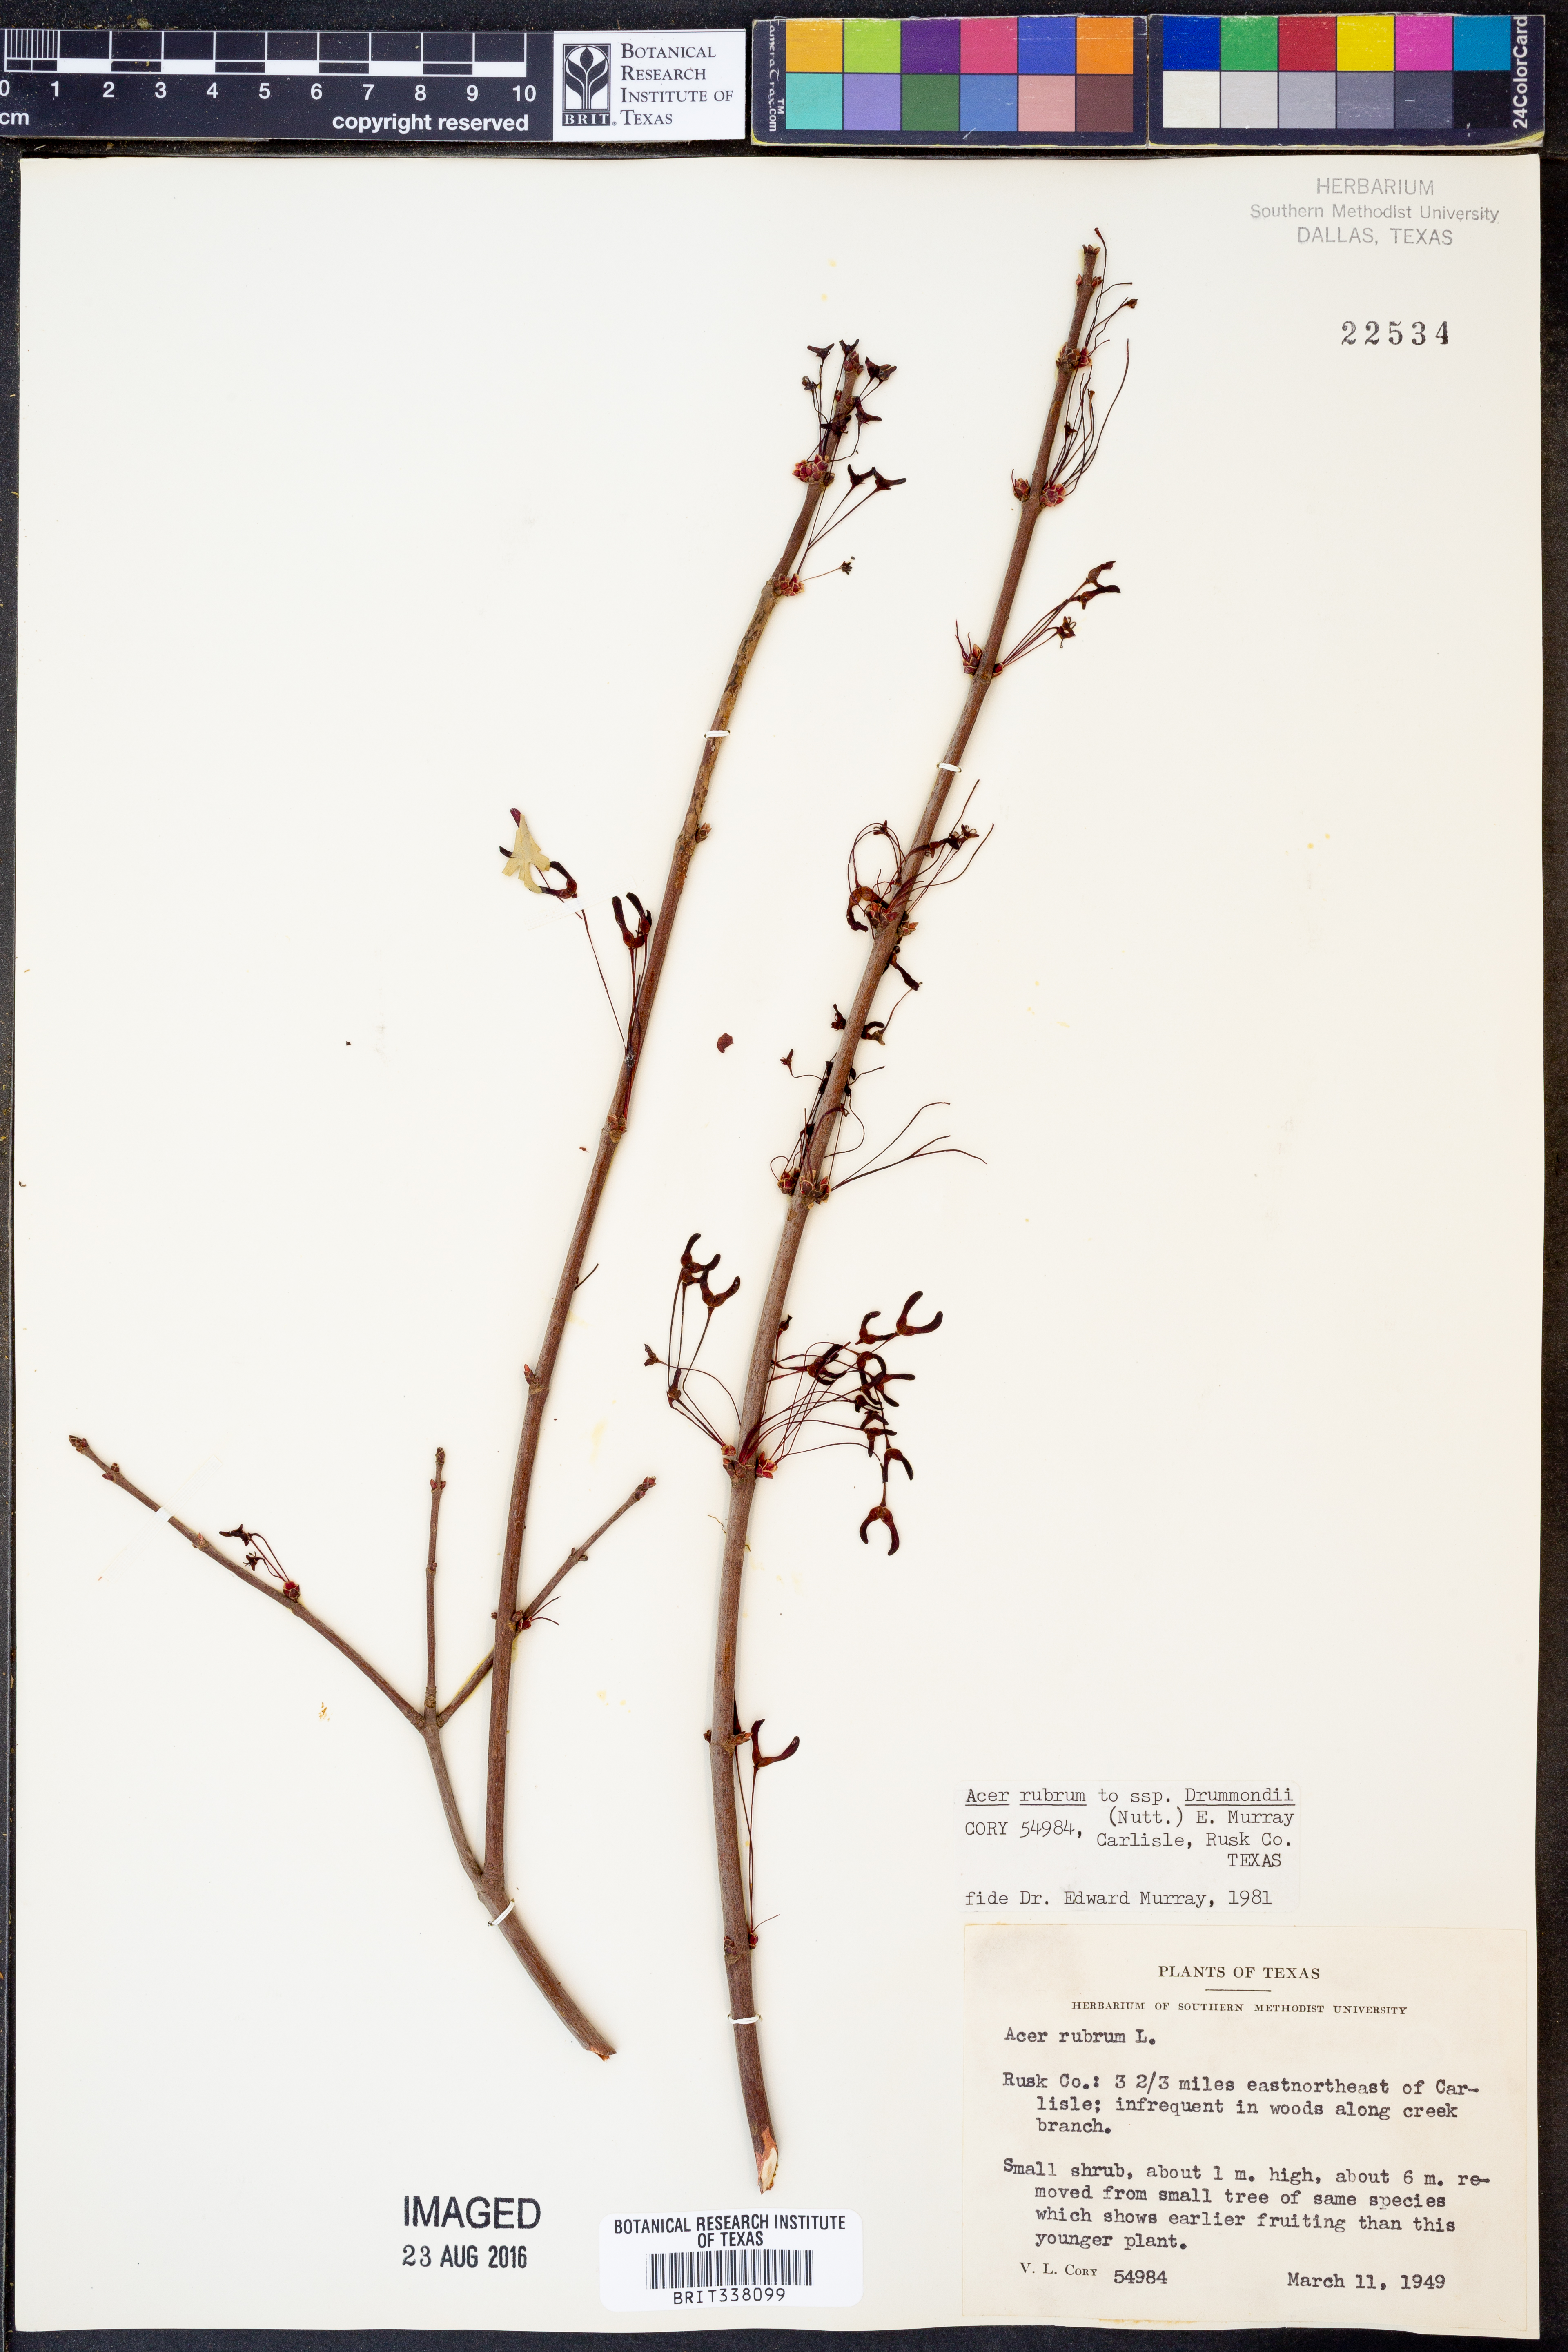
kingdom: Plantae
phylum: Tracheophyta
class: Magnoliopsida
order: Sapindales
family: Sapindaceae
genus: Acer
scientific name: Acer rubrum
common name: Red maple
